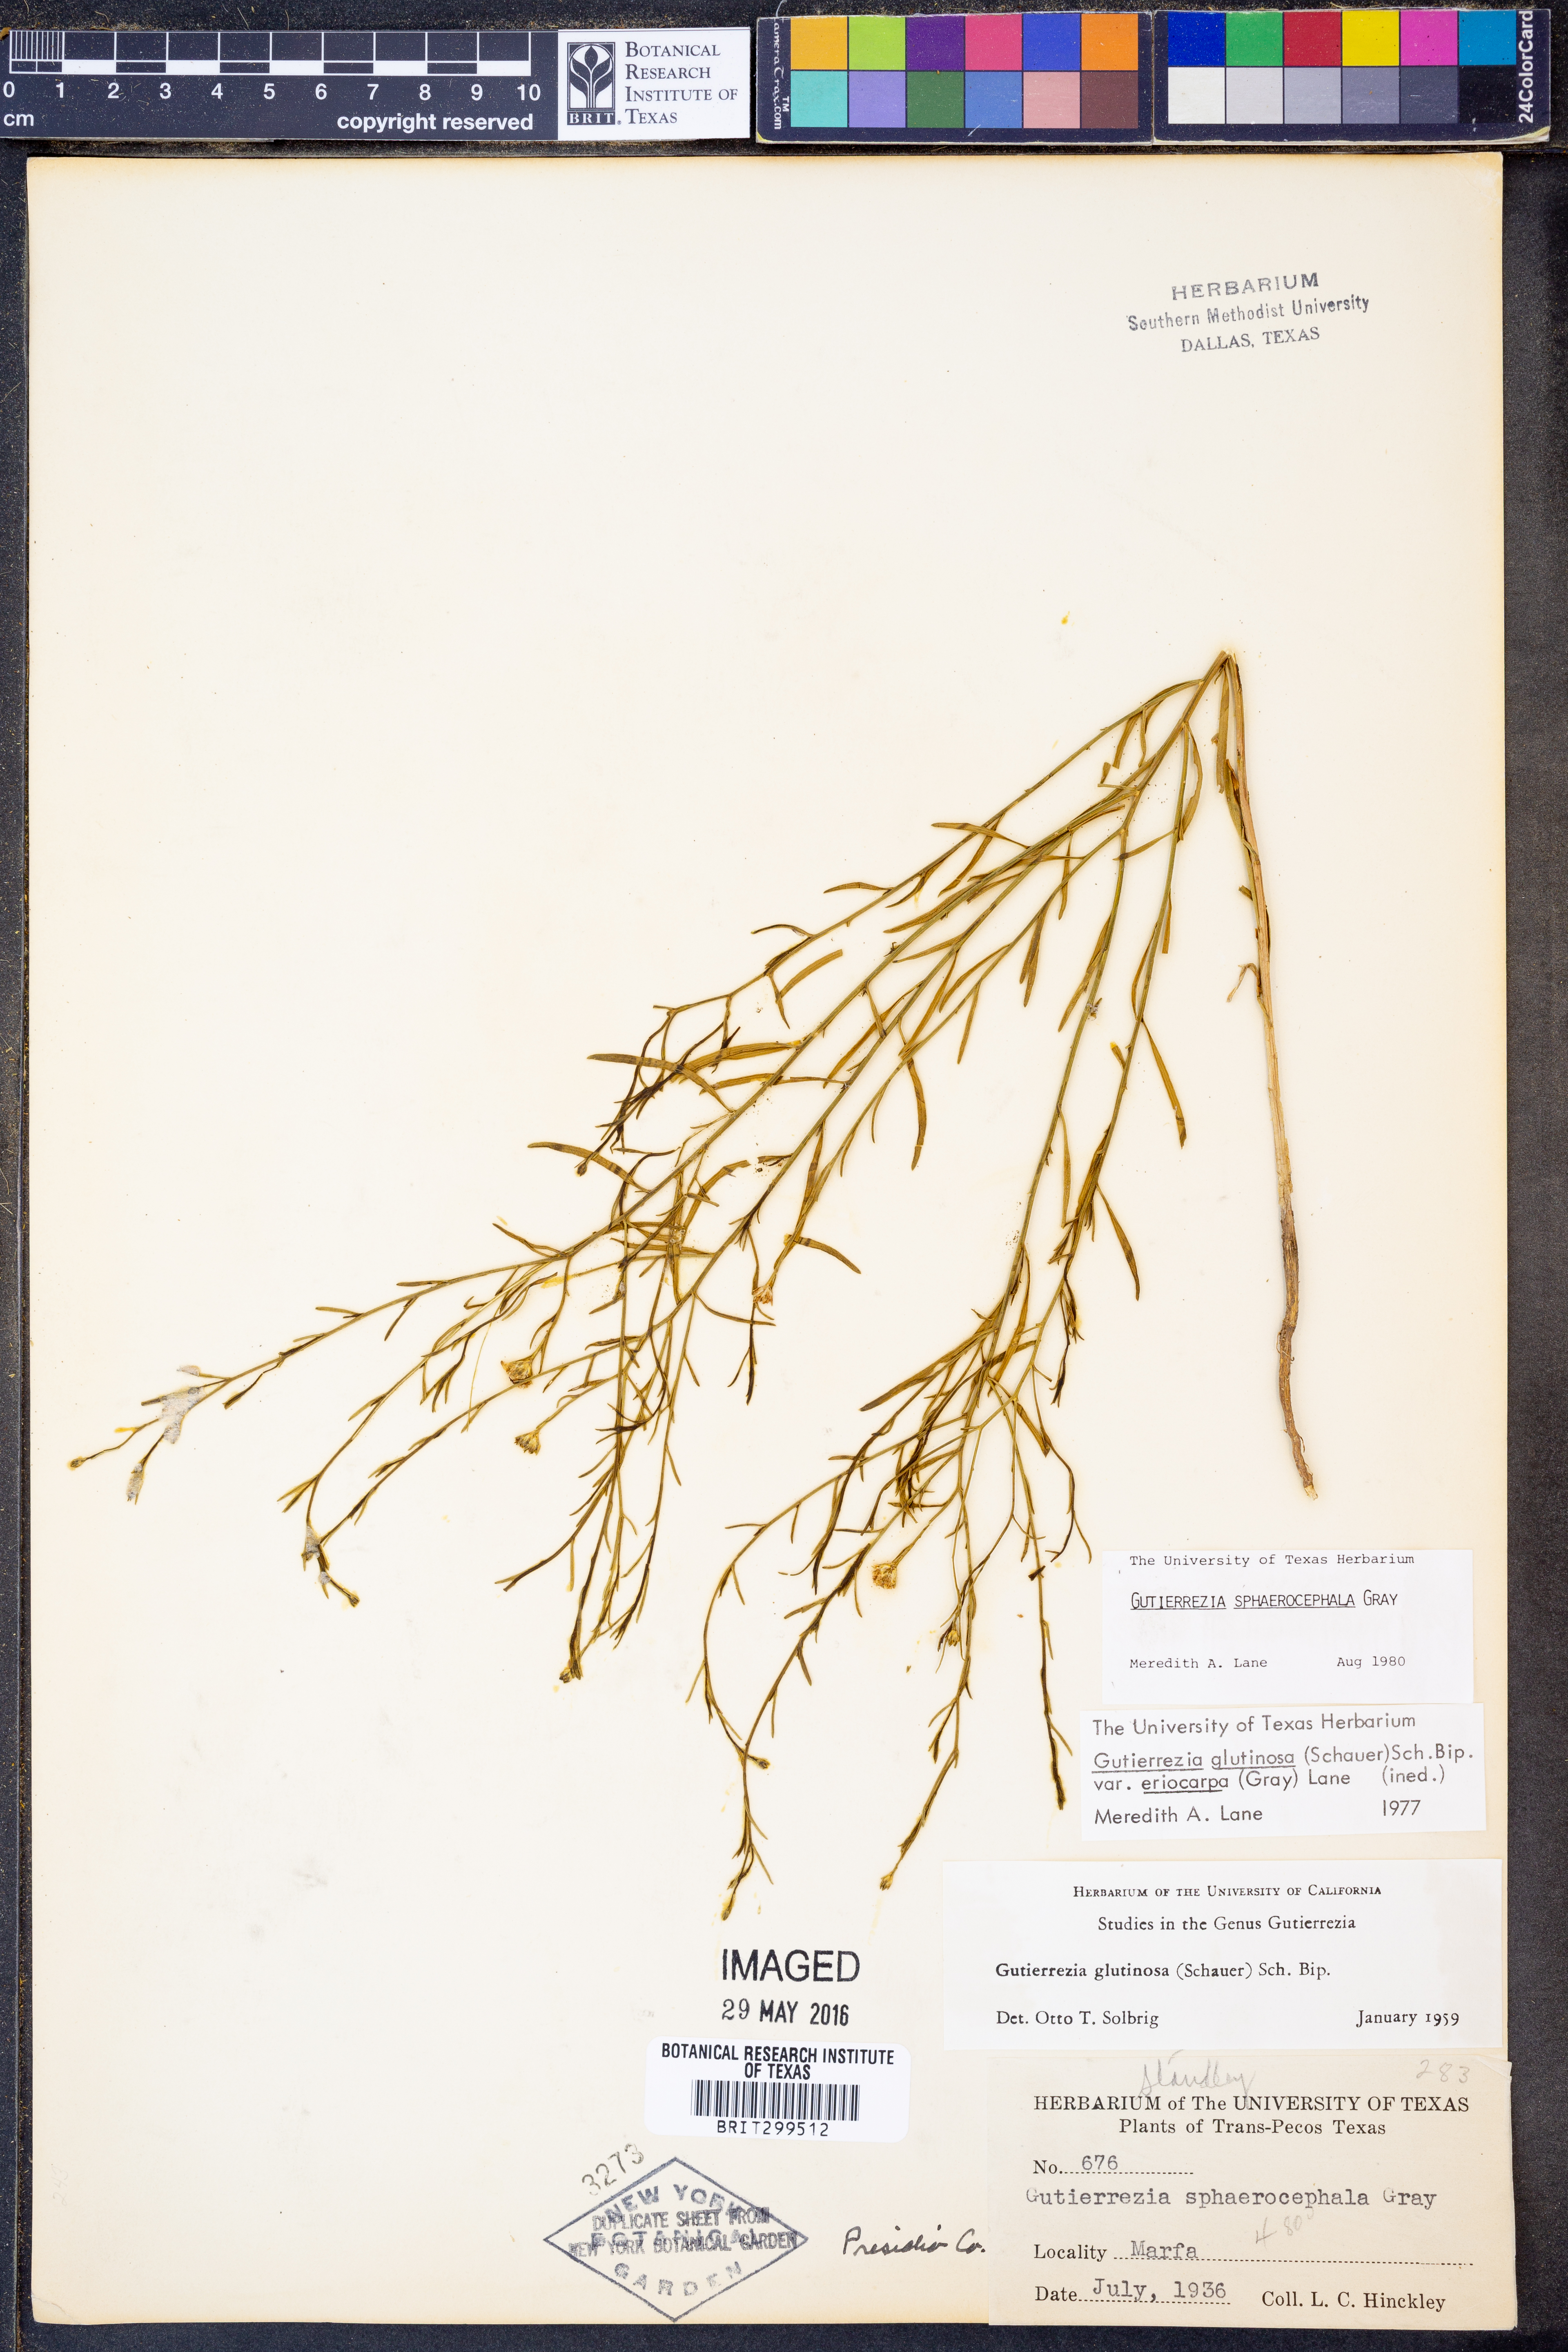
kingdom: Plantae
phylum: Tracheophyta
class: Magnoliopsida
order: Asterales
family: Asteraceae
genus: Gutierrezia
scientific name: Gutierrezia sphaerocephala
